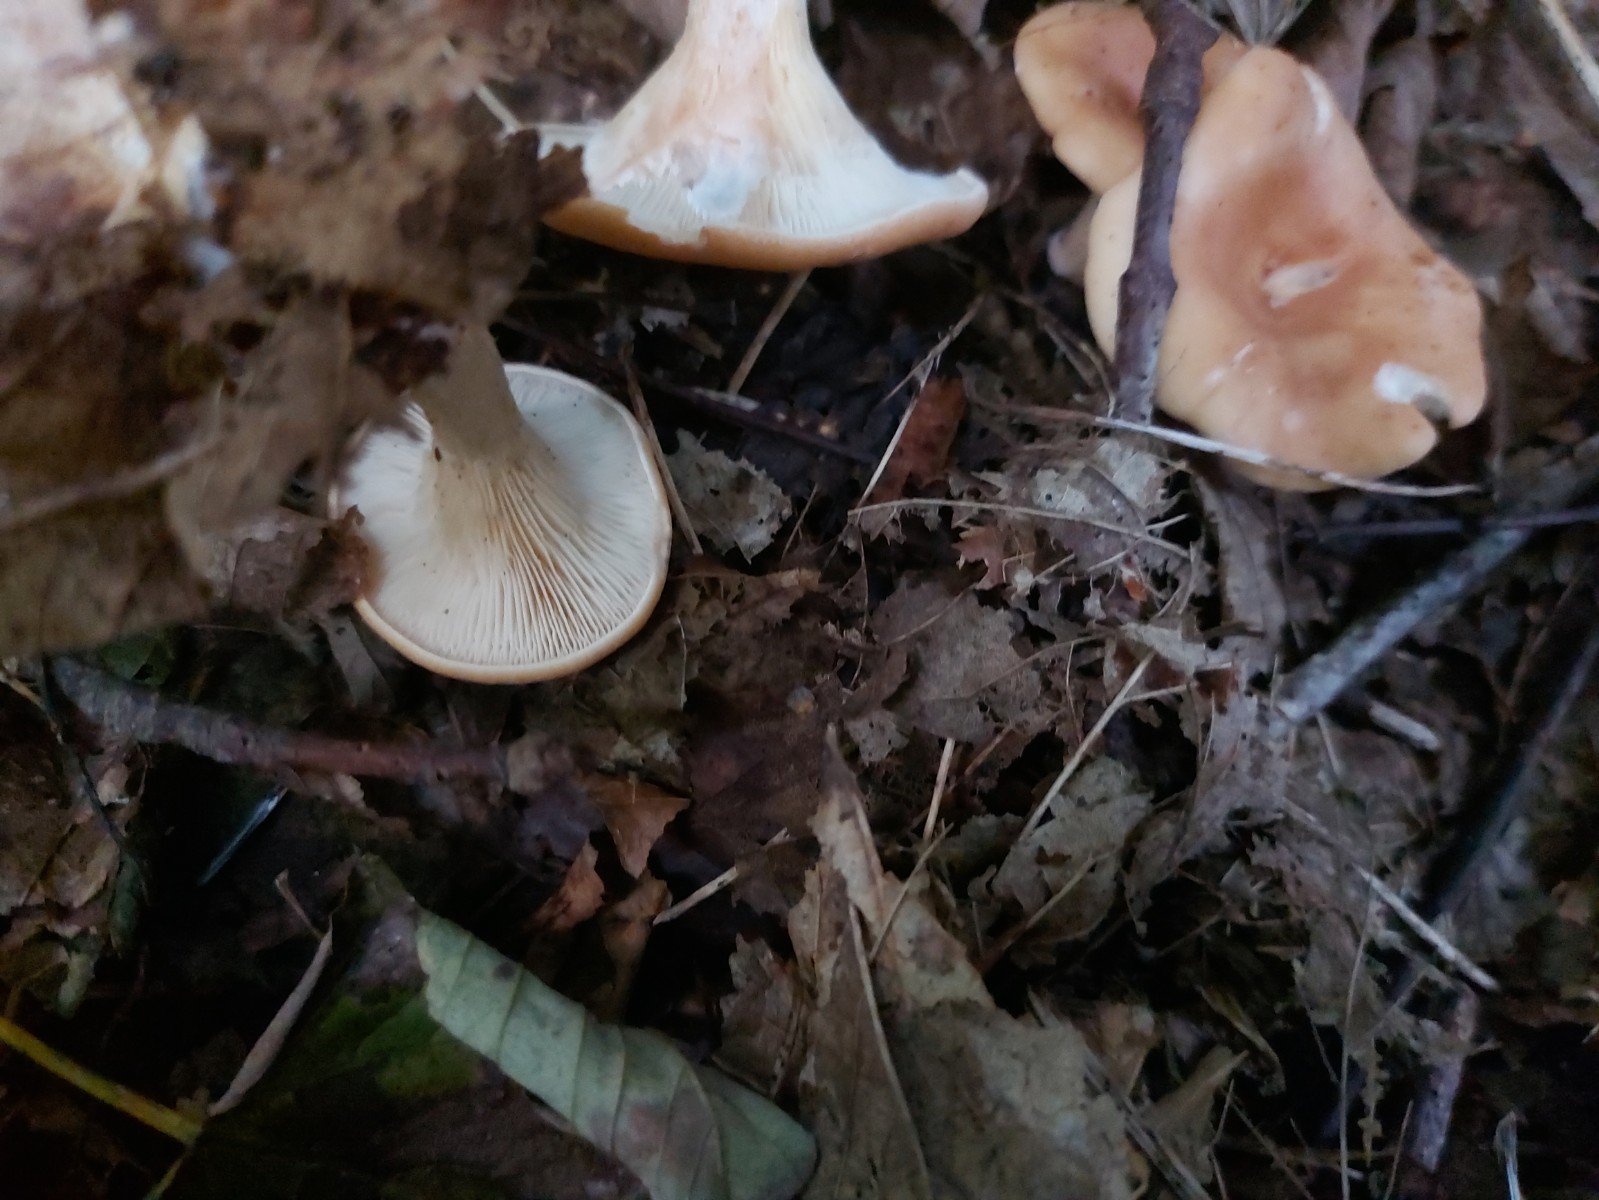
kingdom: Fungi
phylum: Basidiomycota
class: Agaricomycetes
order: Agaricales
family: Tricholomataceae
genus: Infundibulicybe
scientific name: Infundibulicybe gibba
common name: almindelig tragthat
